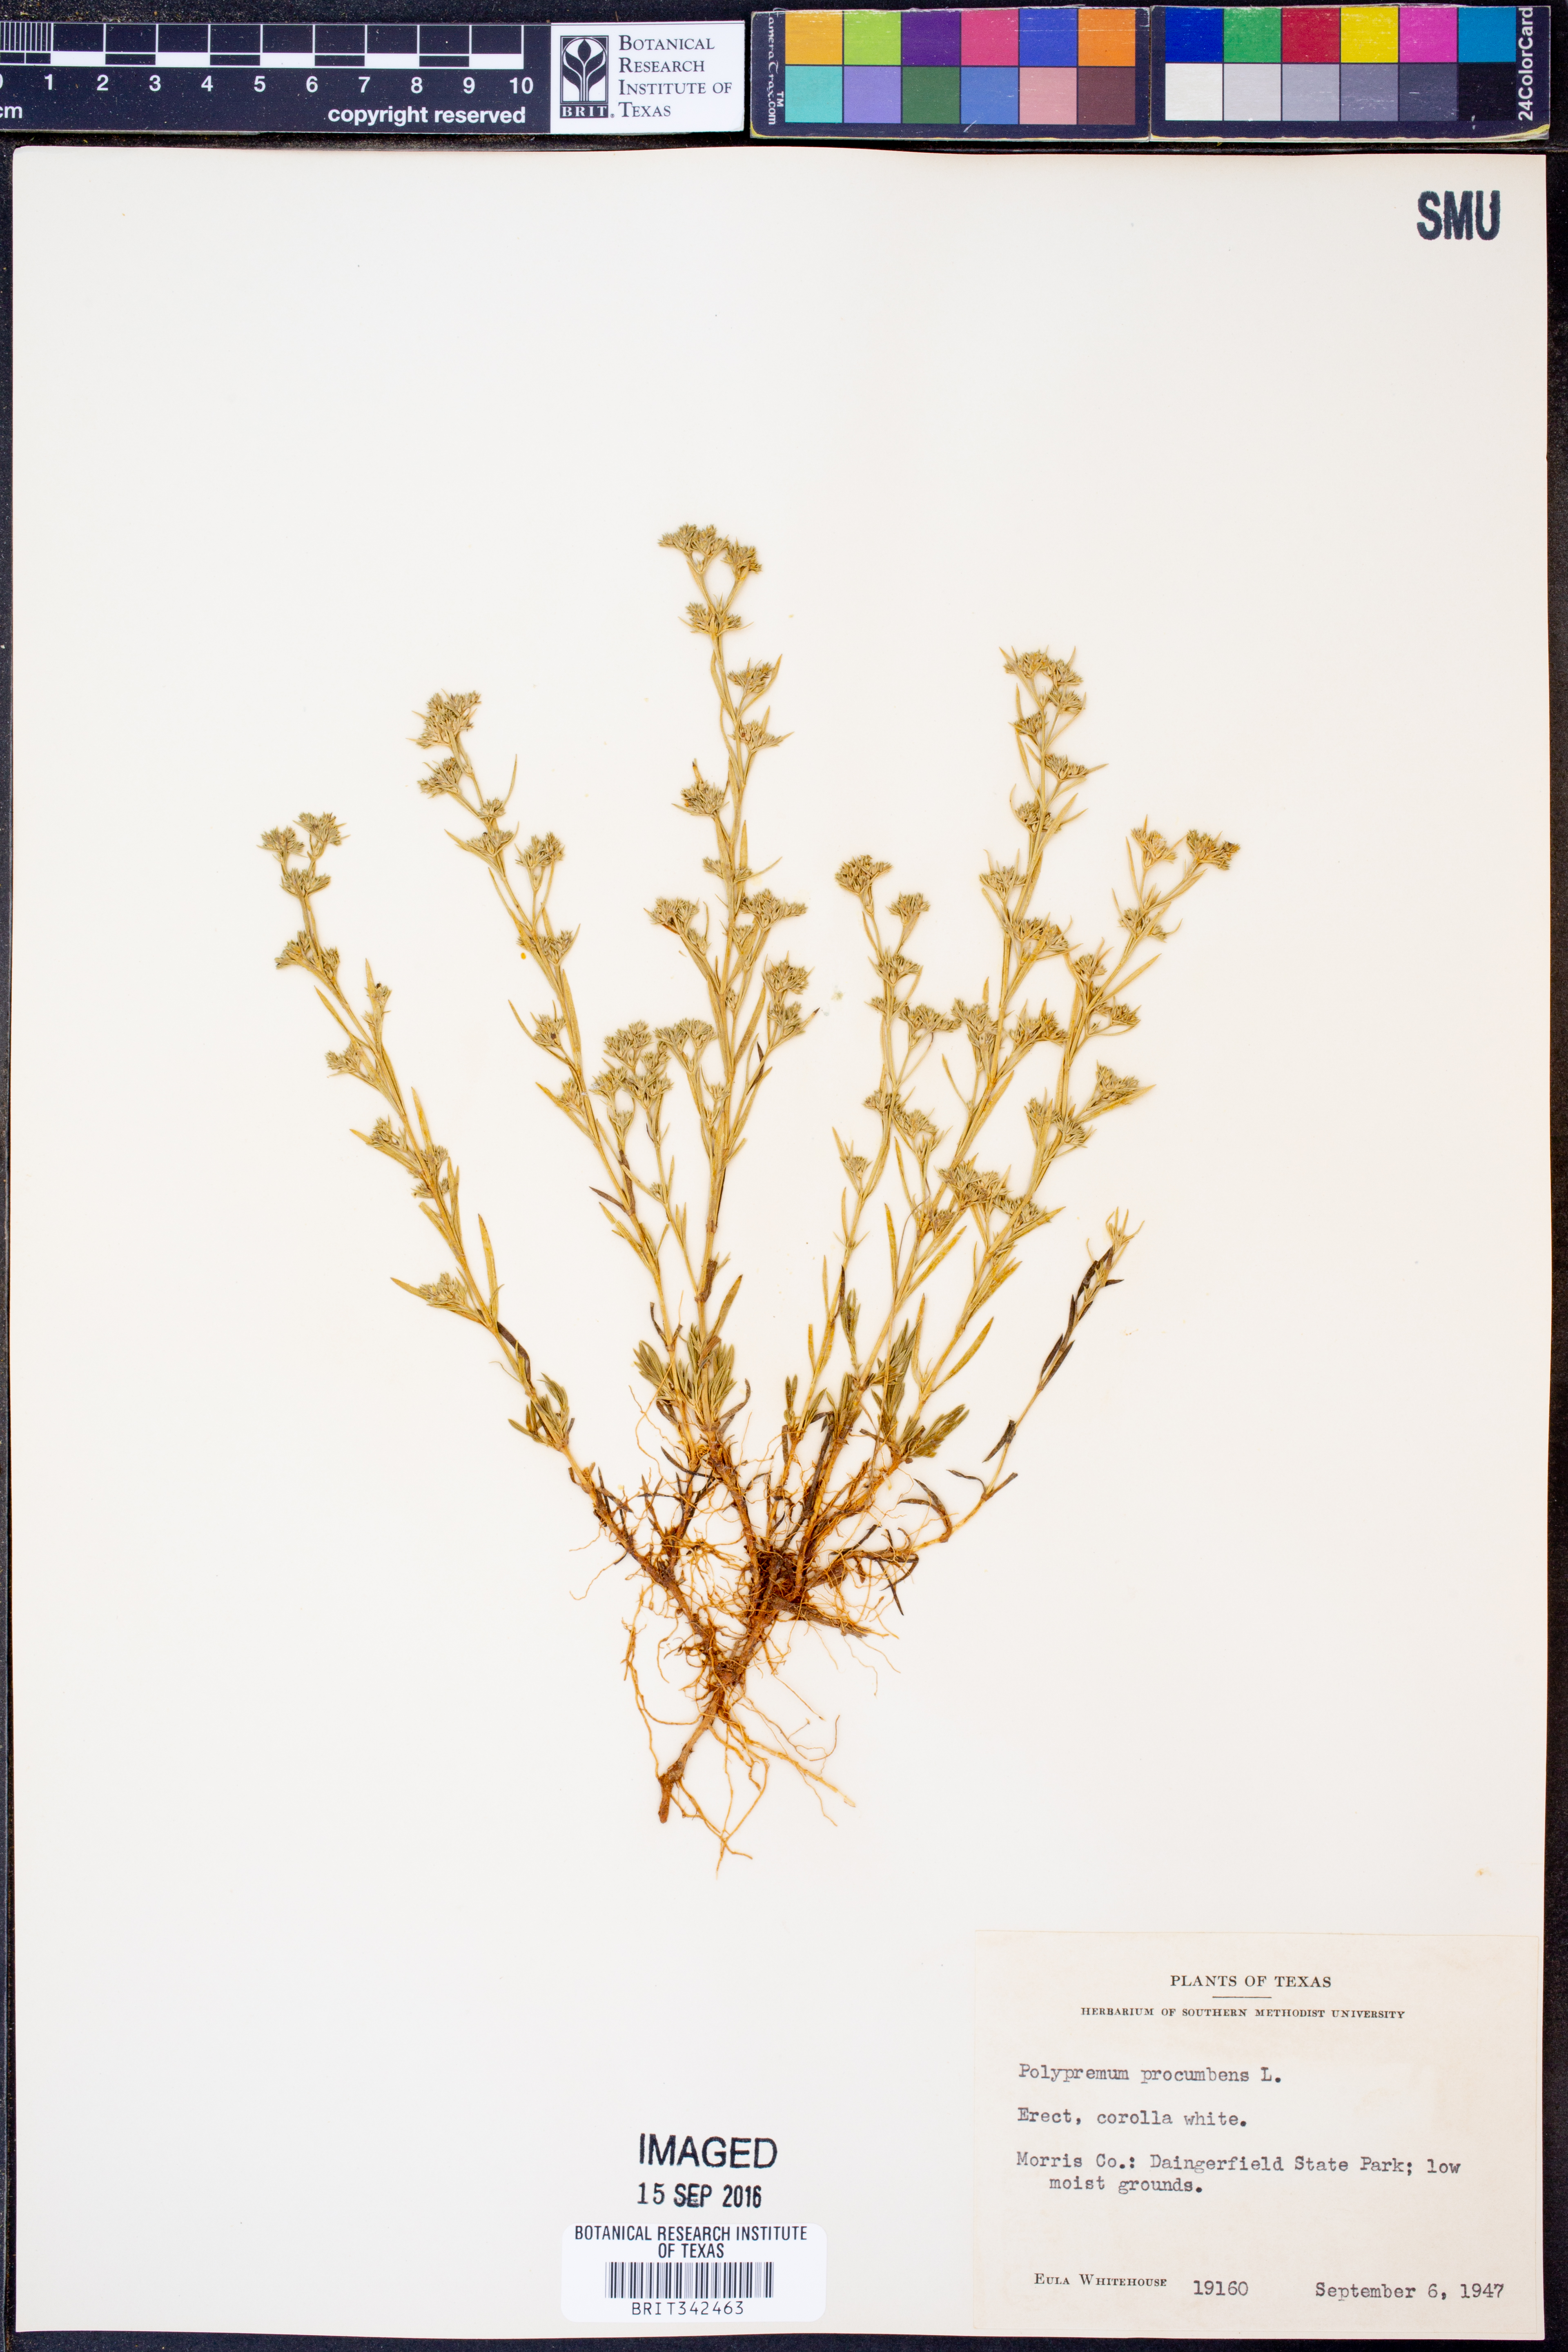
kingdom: Plantae
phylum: Tracheophyta
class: Magnoliopsida
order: Lamiales
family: Tetrachondraceae
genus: Polypremum
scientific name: Polypremum procumbens
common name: Juniper-leaf
